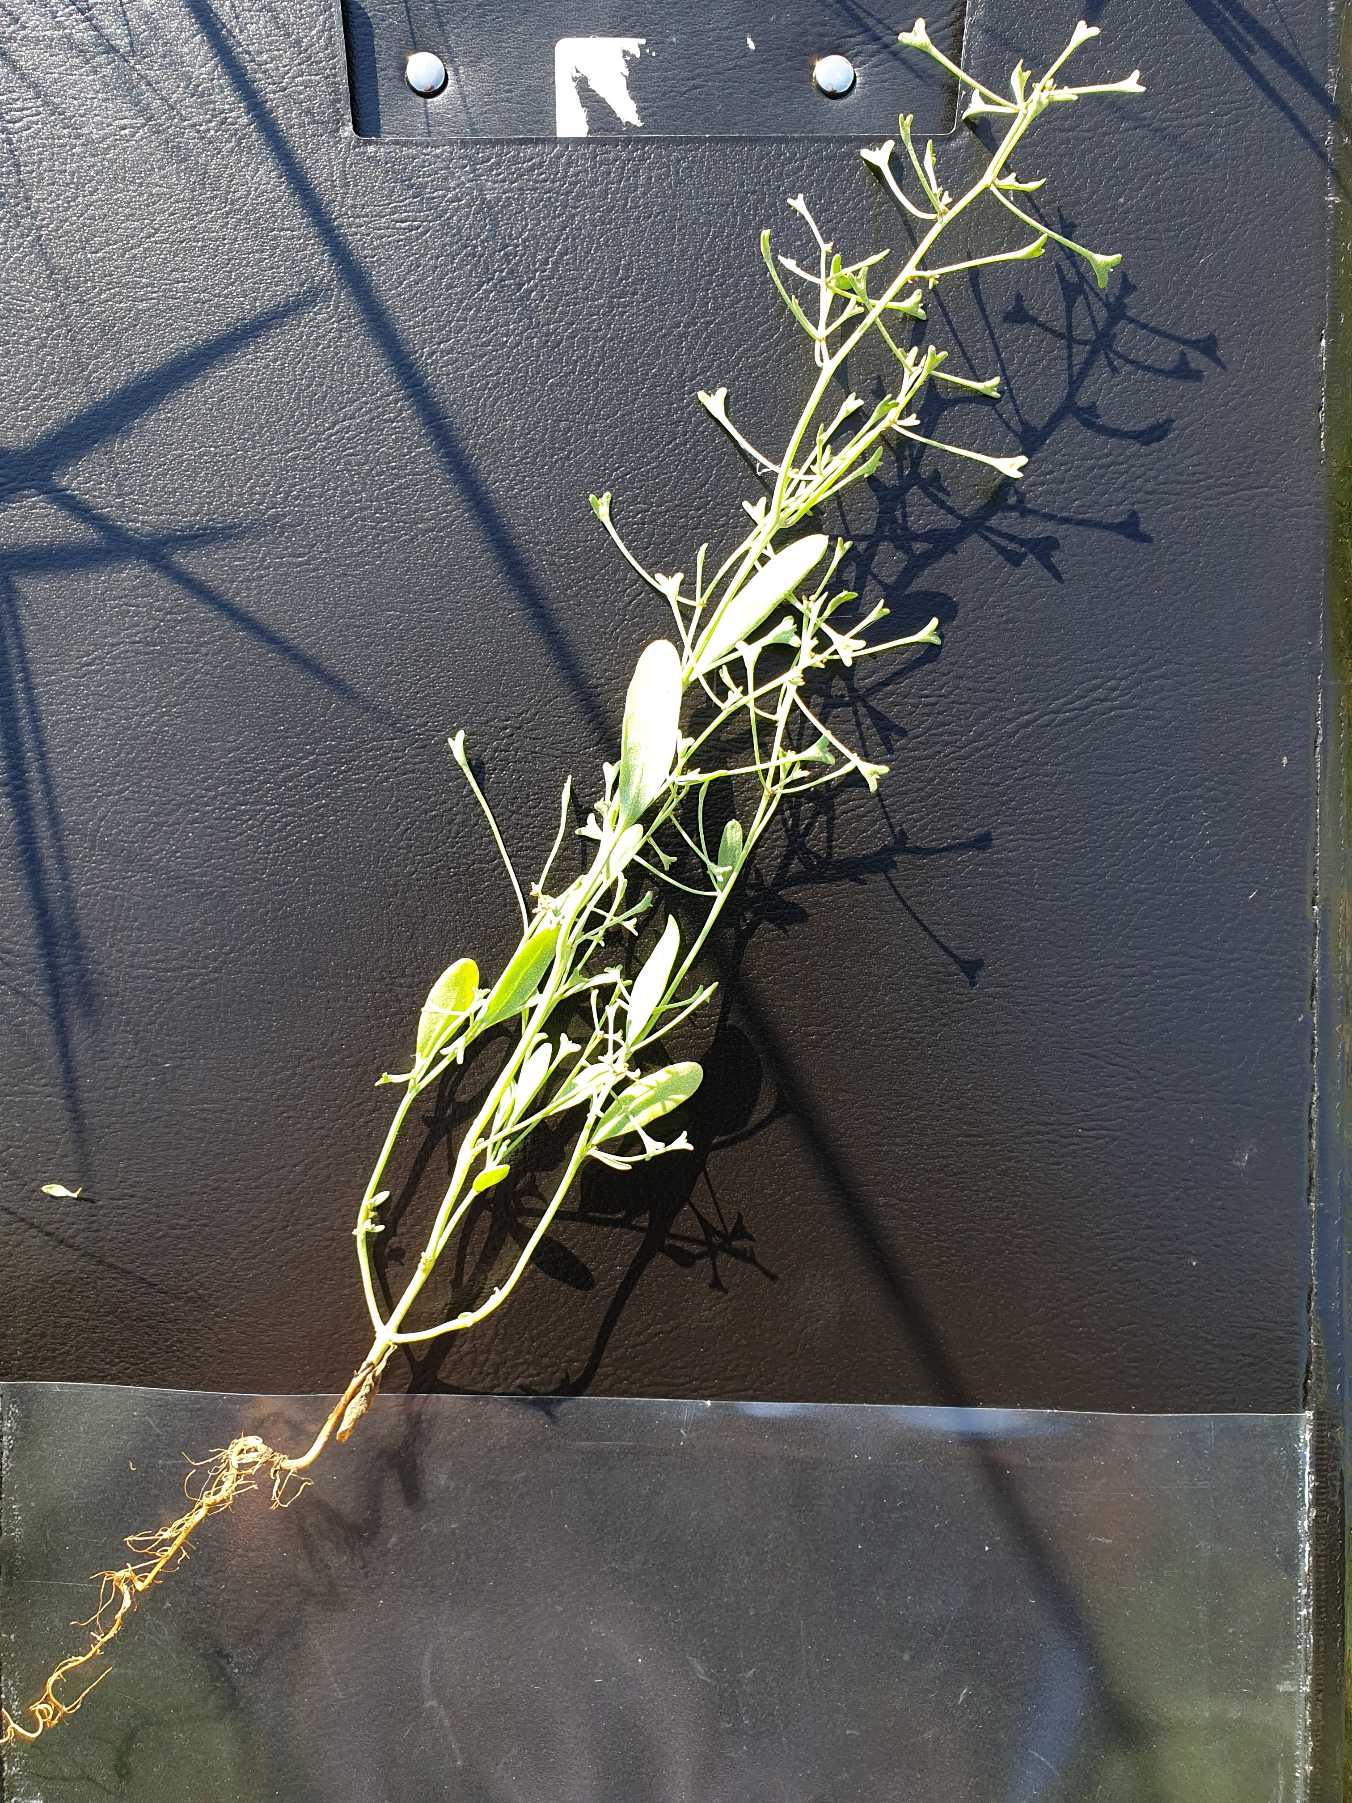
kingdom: Plantae
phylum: Tracheophyta
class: Magnoliopsida
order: Caryophyllales
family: Amaranthaceae
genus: Halimione
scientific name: Halimione pedunculata
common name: Stilket kilebæger
